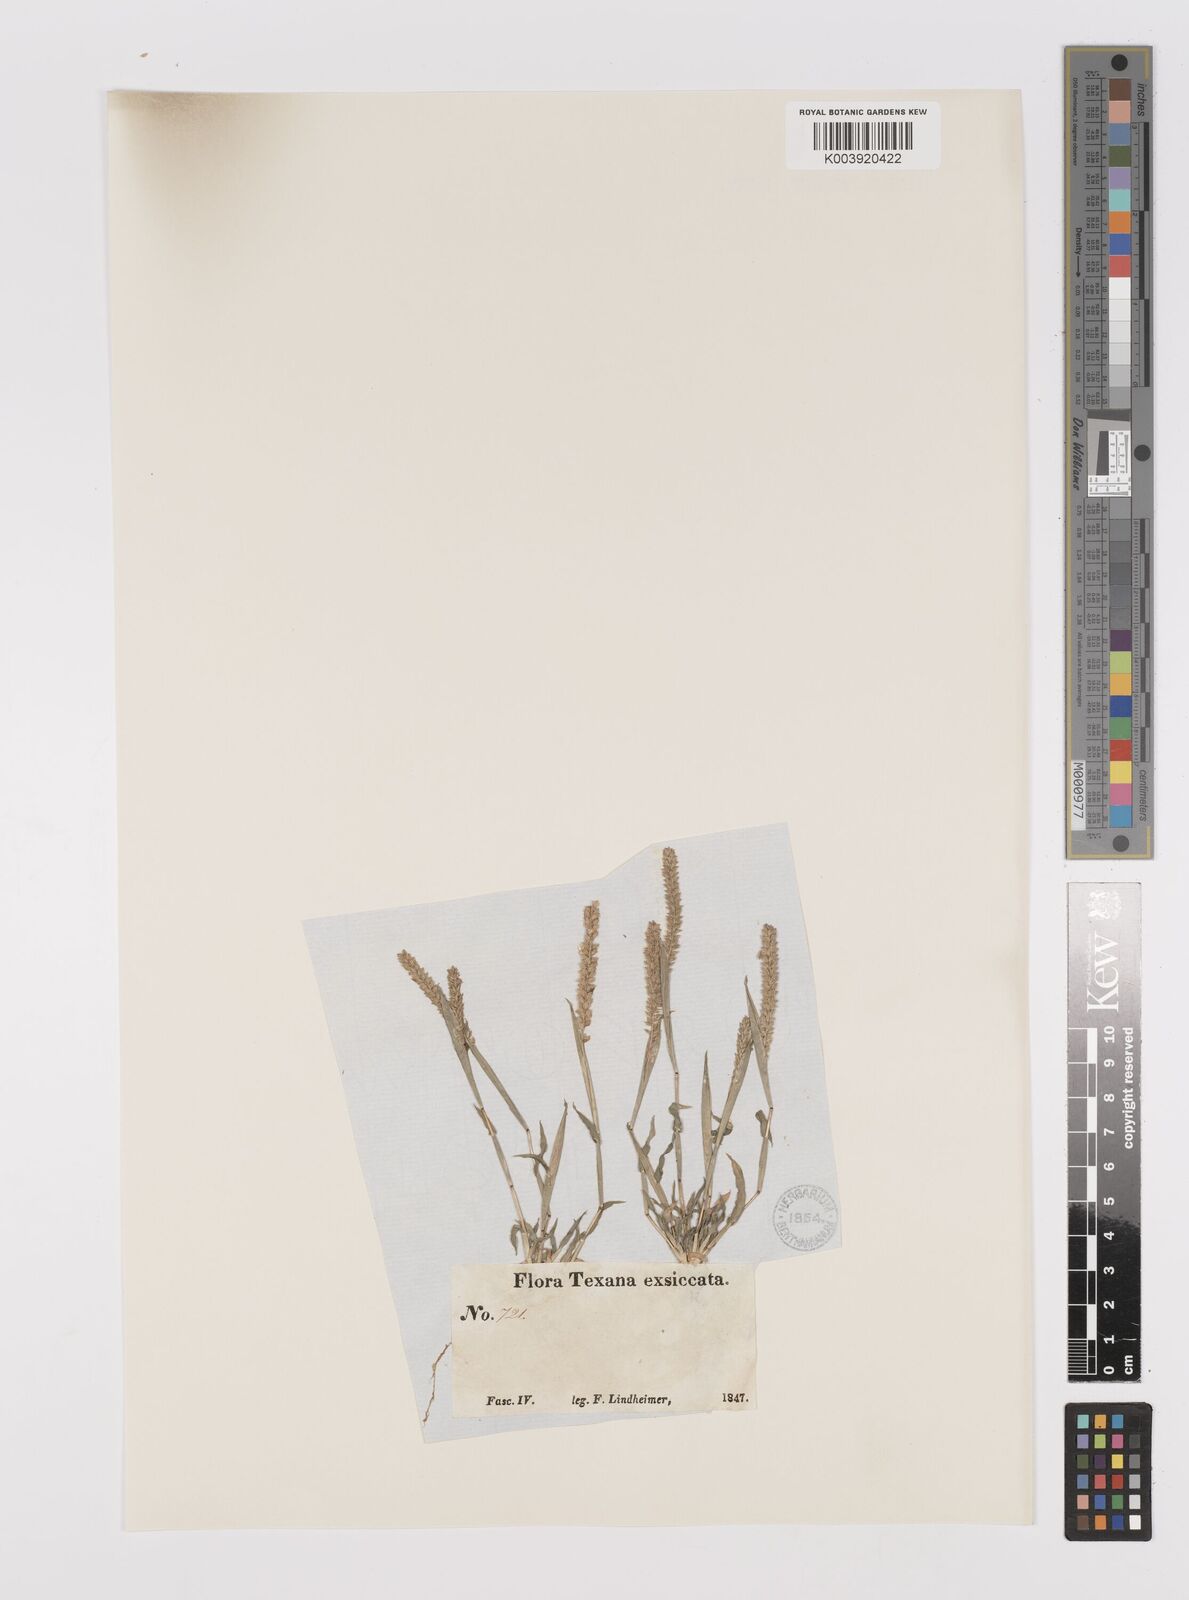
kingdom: Plantae
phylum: Tracheophyta
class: Liliopsida
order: Poales
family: Poaceae
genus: Tragus
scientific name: Tragus berteronianus
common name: African bur-grass
